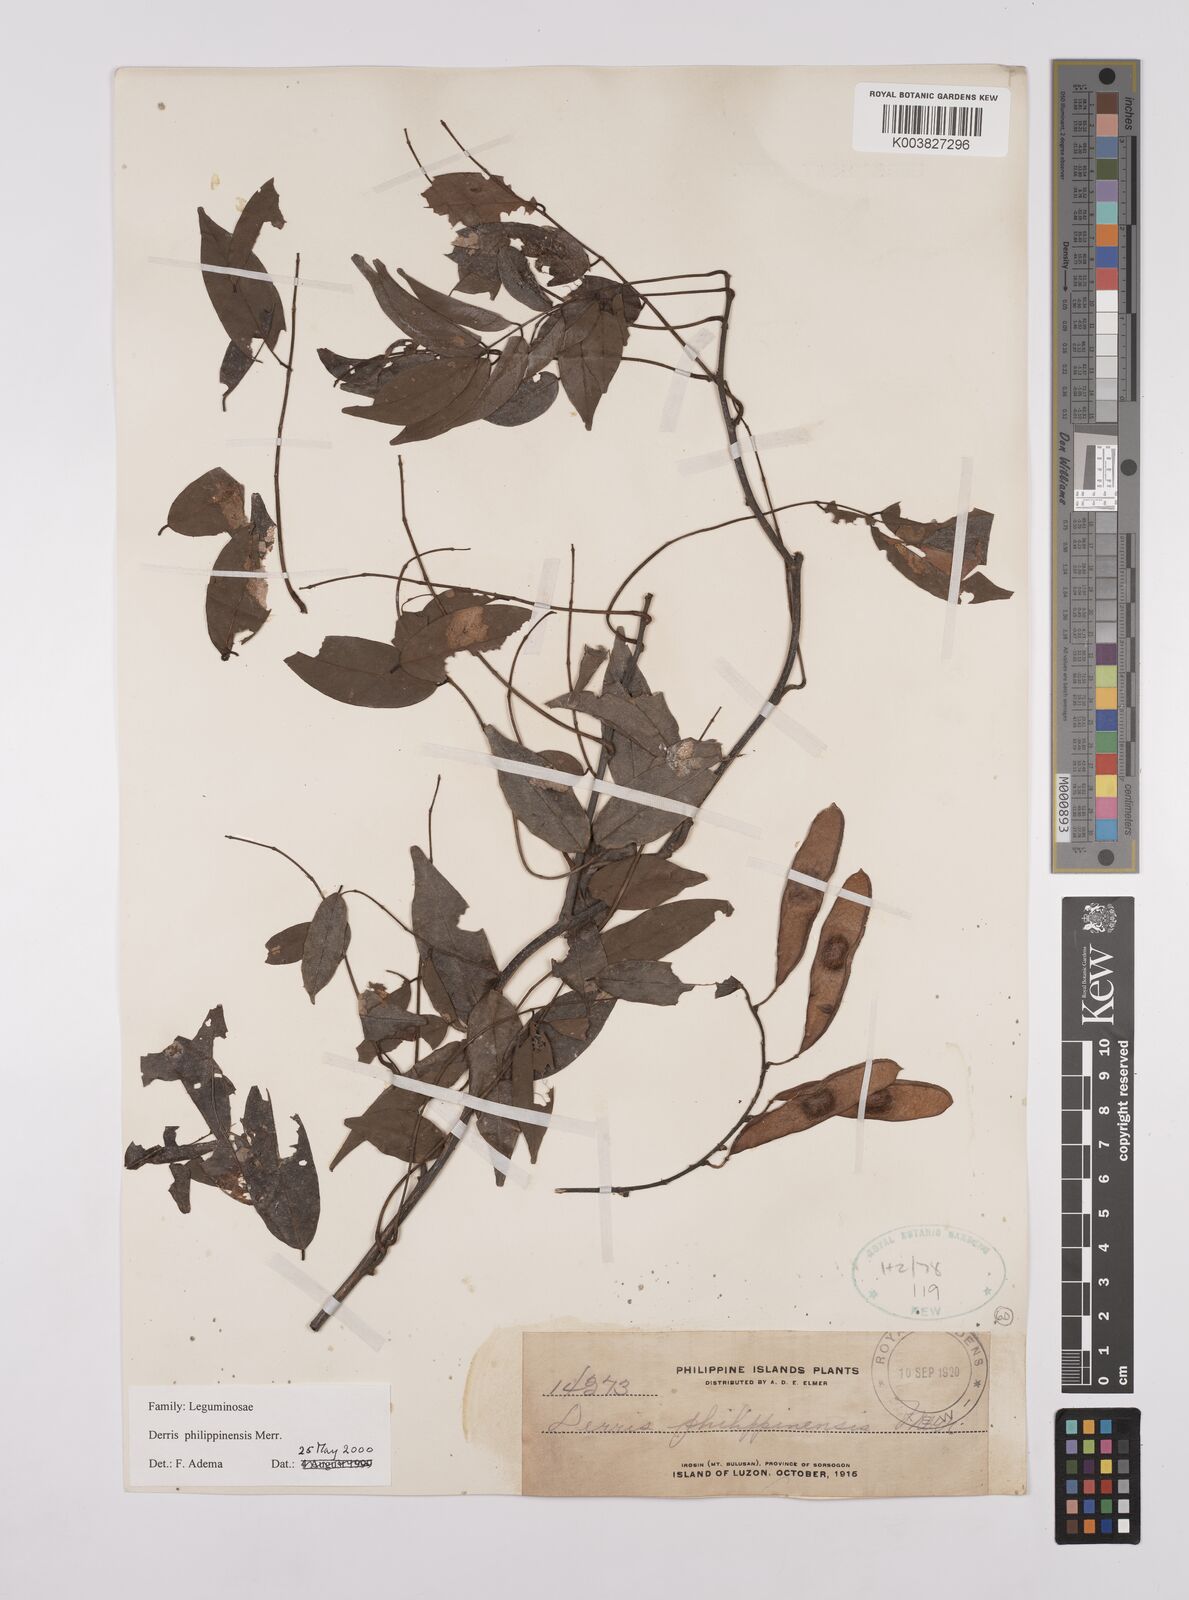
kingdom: Plantae
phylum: Tracheophyta
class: Magnoliopsida
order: Fabales
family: Fabaceae
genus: Brachypterum
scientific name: Brachypterum philippinense
